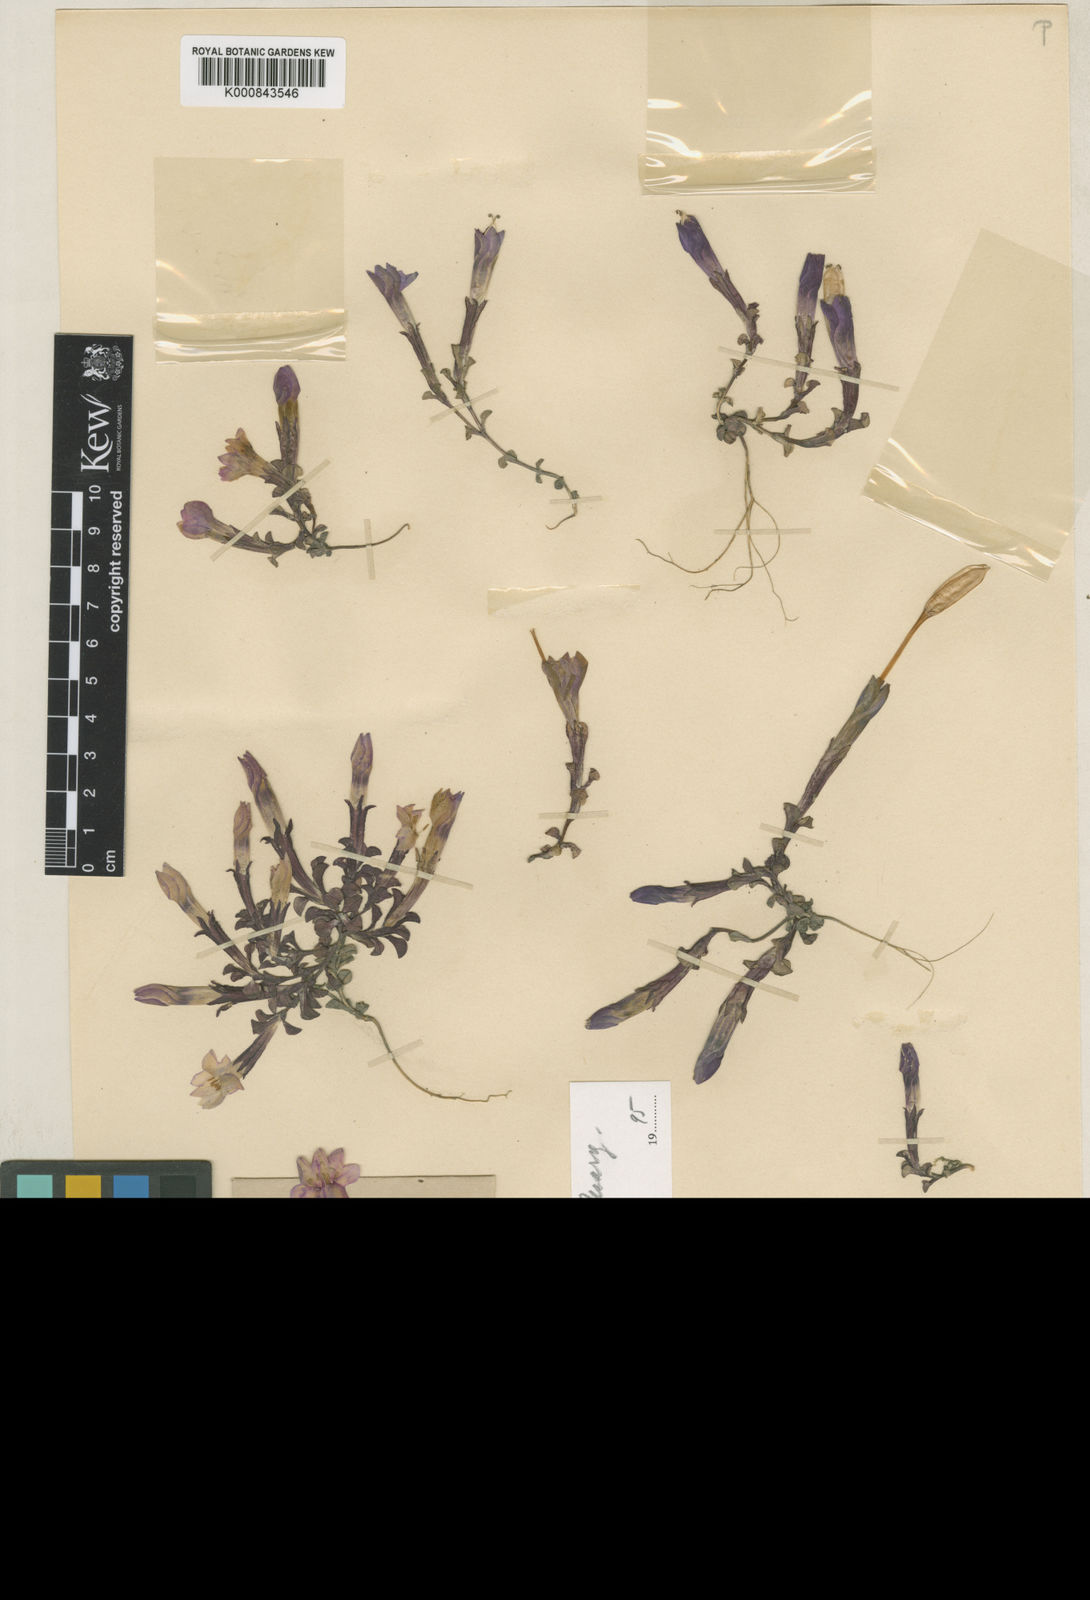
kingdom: Plantae
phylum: Tracheophyta
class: Magnoliopsida
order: Gentianales
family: Gentianaceae
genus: Gentiana
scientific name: Gentiana nanobella
